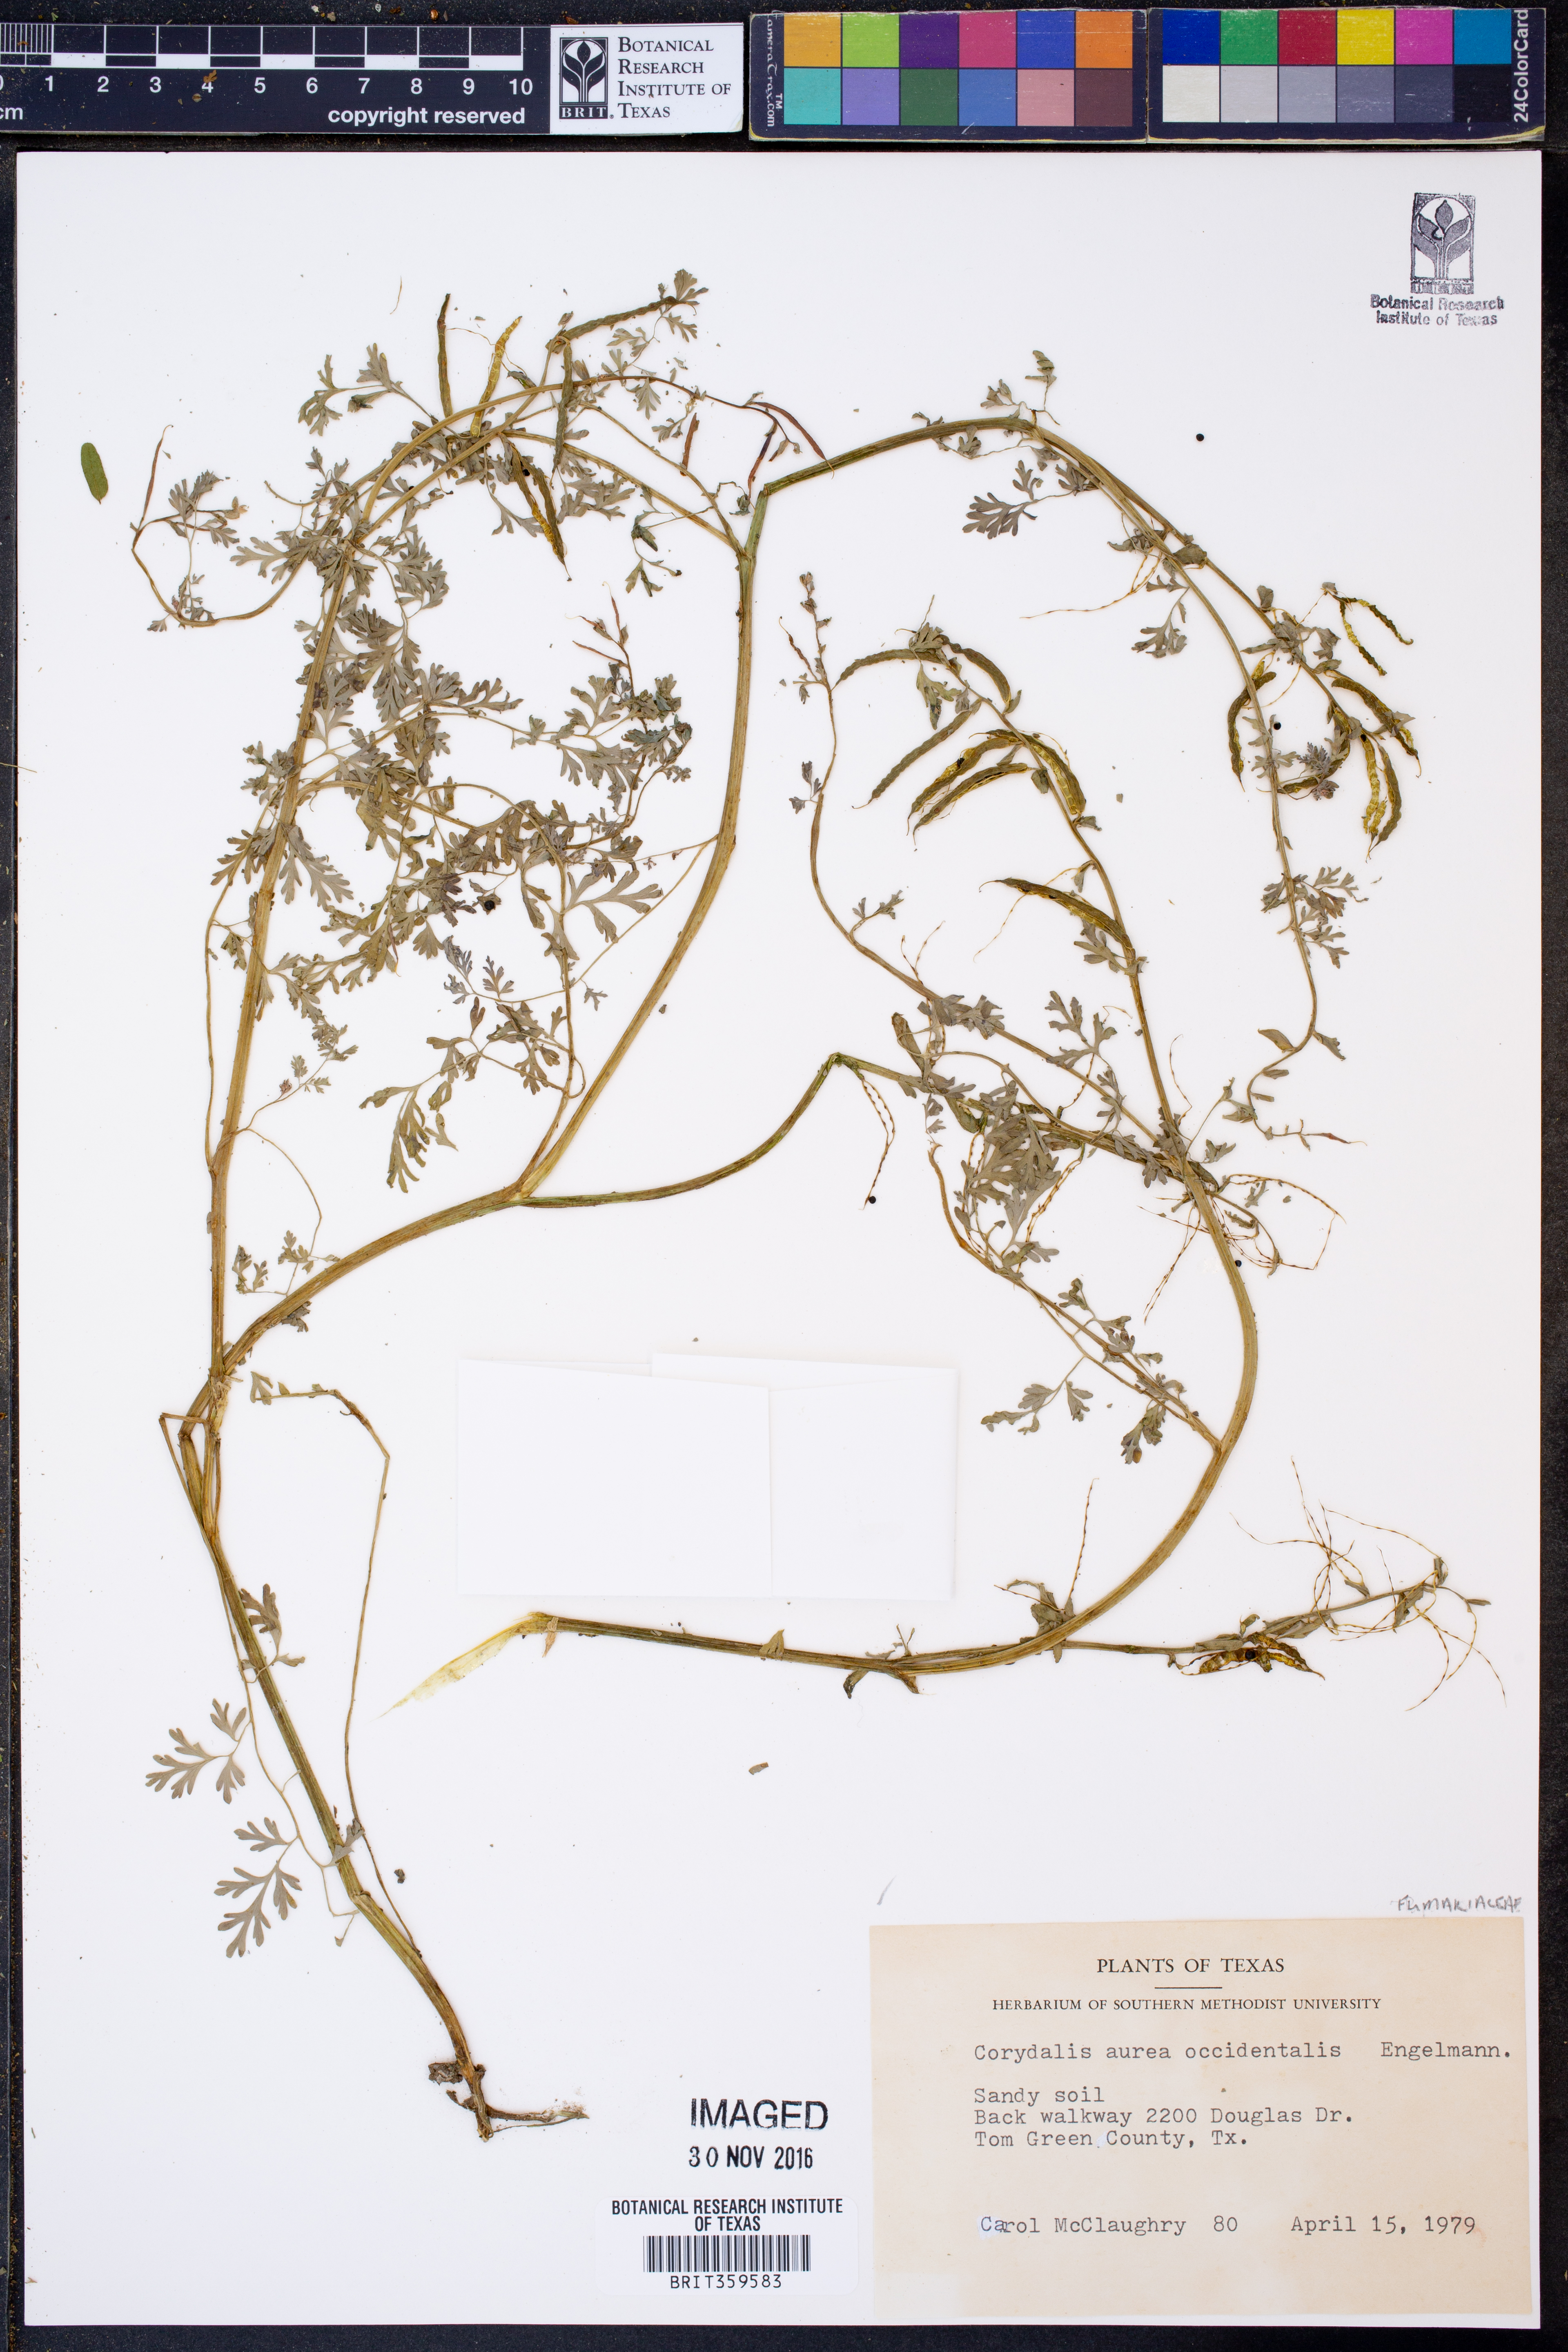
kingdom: Plantae
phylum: Tracheophyta
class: Magnoliopsida
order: Ranunculales
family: Papaveraceae
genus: Corydalis
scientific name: Corydalis curvisiliqua
